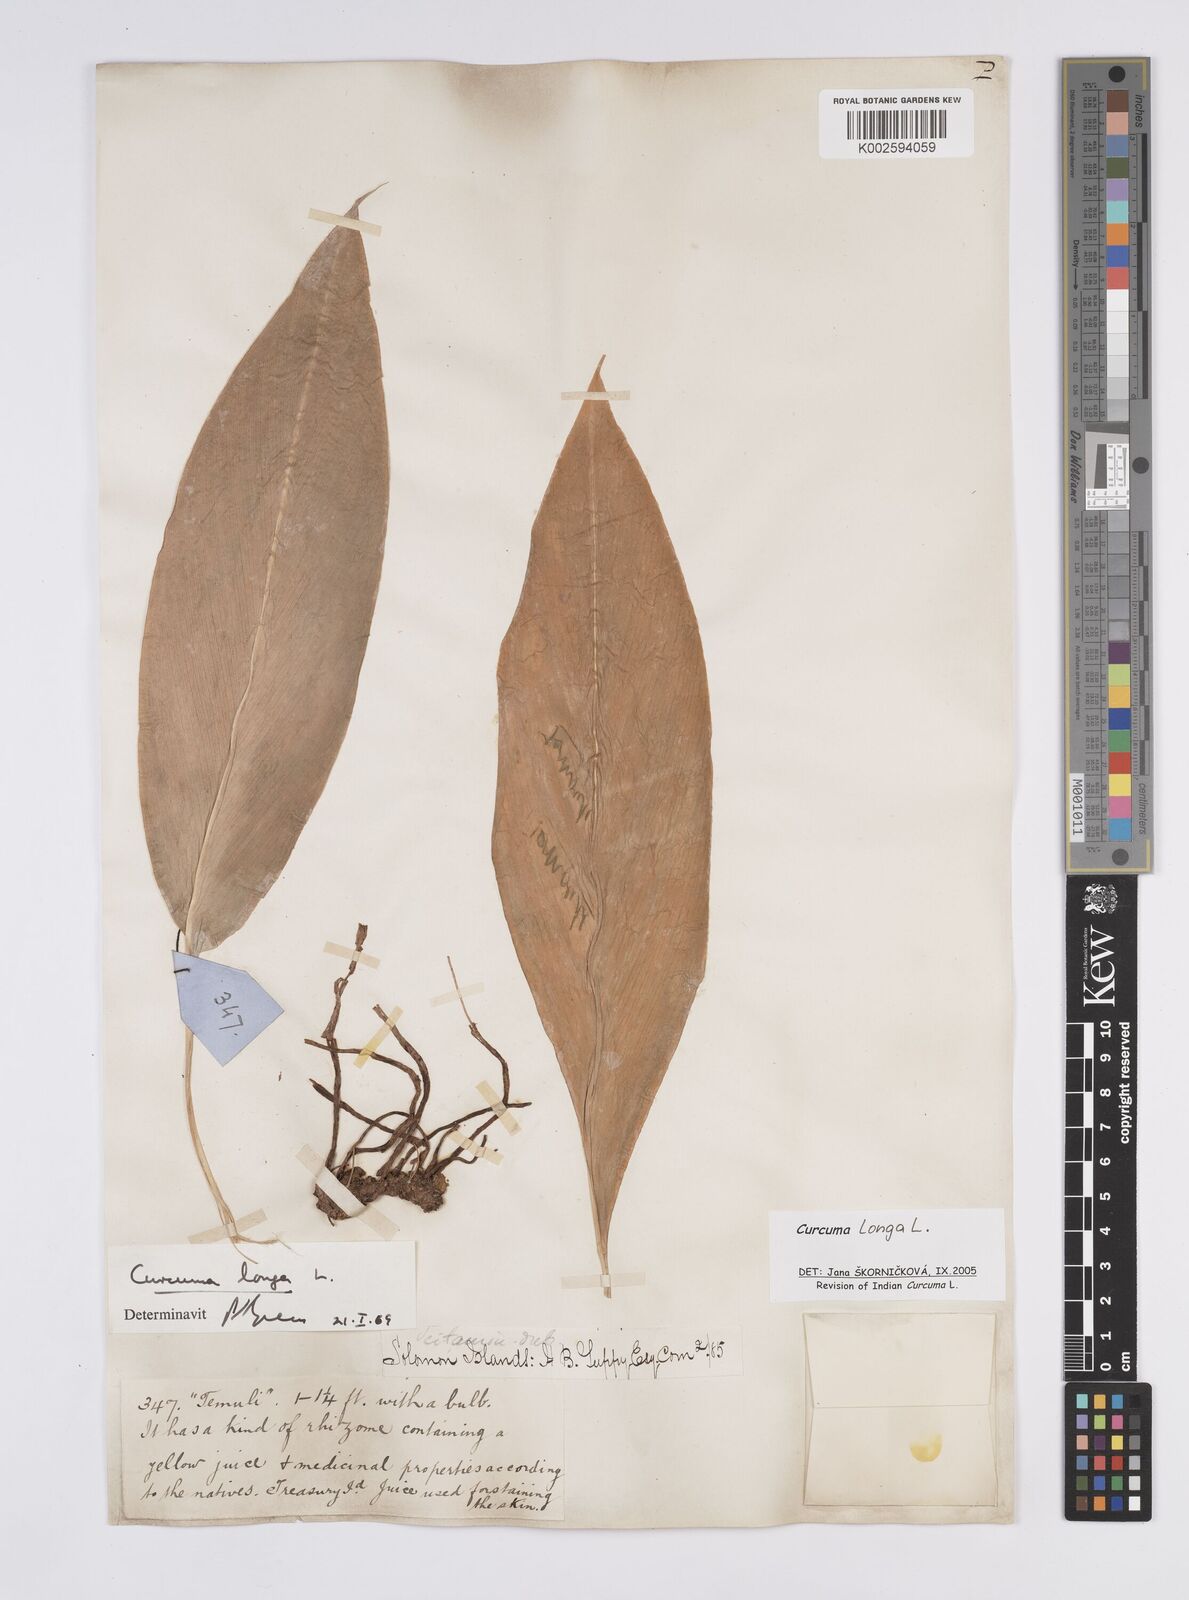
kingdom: Plantae
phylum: Tracheophyta
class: Liliopsida
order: Zingiberales
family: Zingiberaceae
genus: Curcuma
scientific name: Curcuma longa
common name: Turmeric
